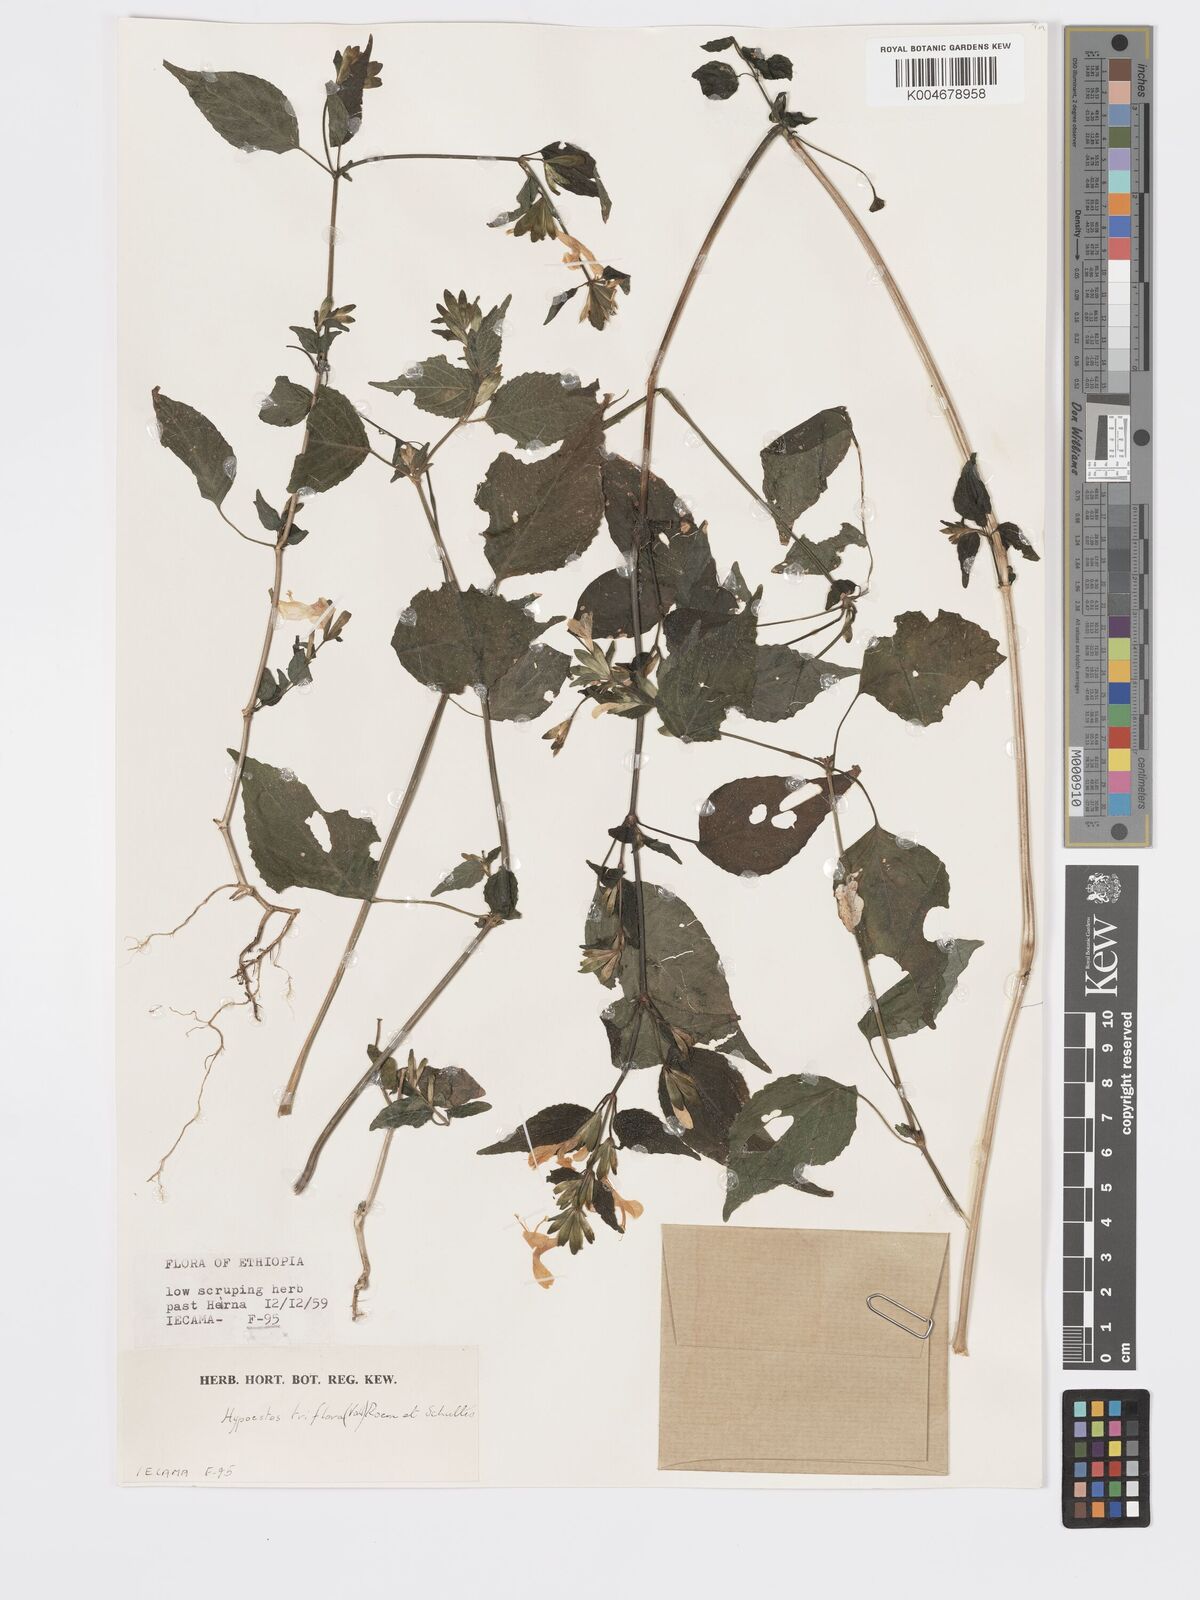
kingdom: Plantae
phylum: Tracheophyta
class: Magnoliopsida
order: Lamiales
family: Acanthaceae
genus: Hypoestes
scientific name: Hypoestes triflora
